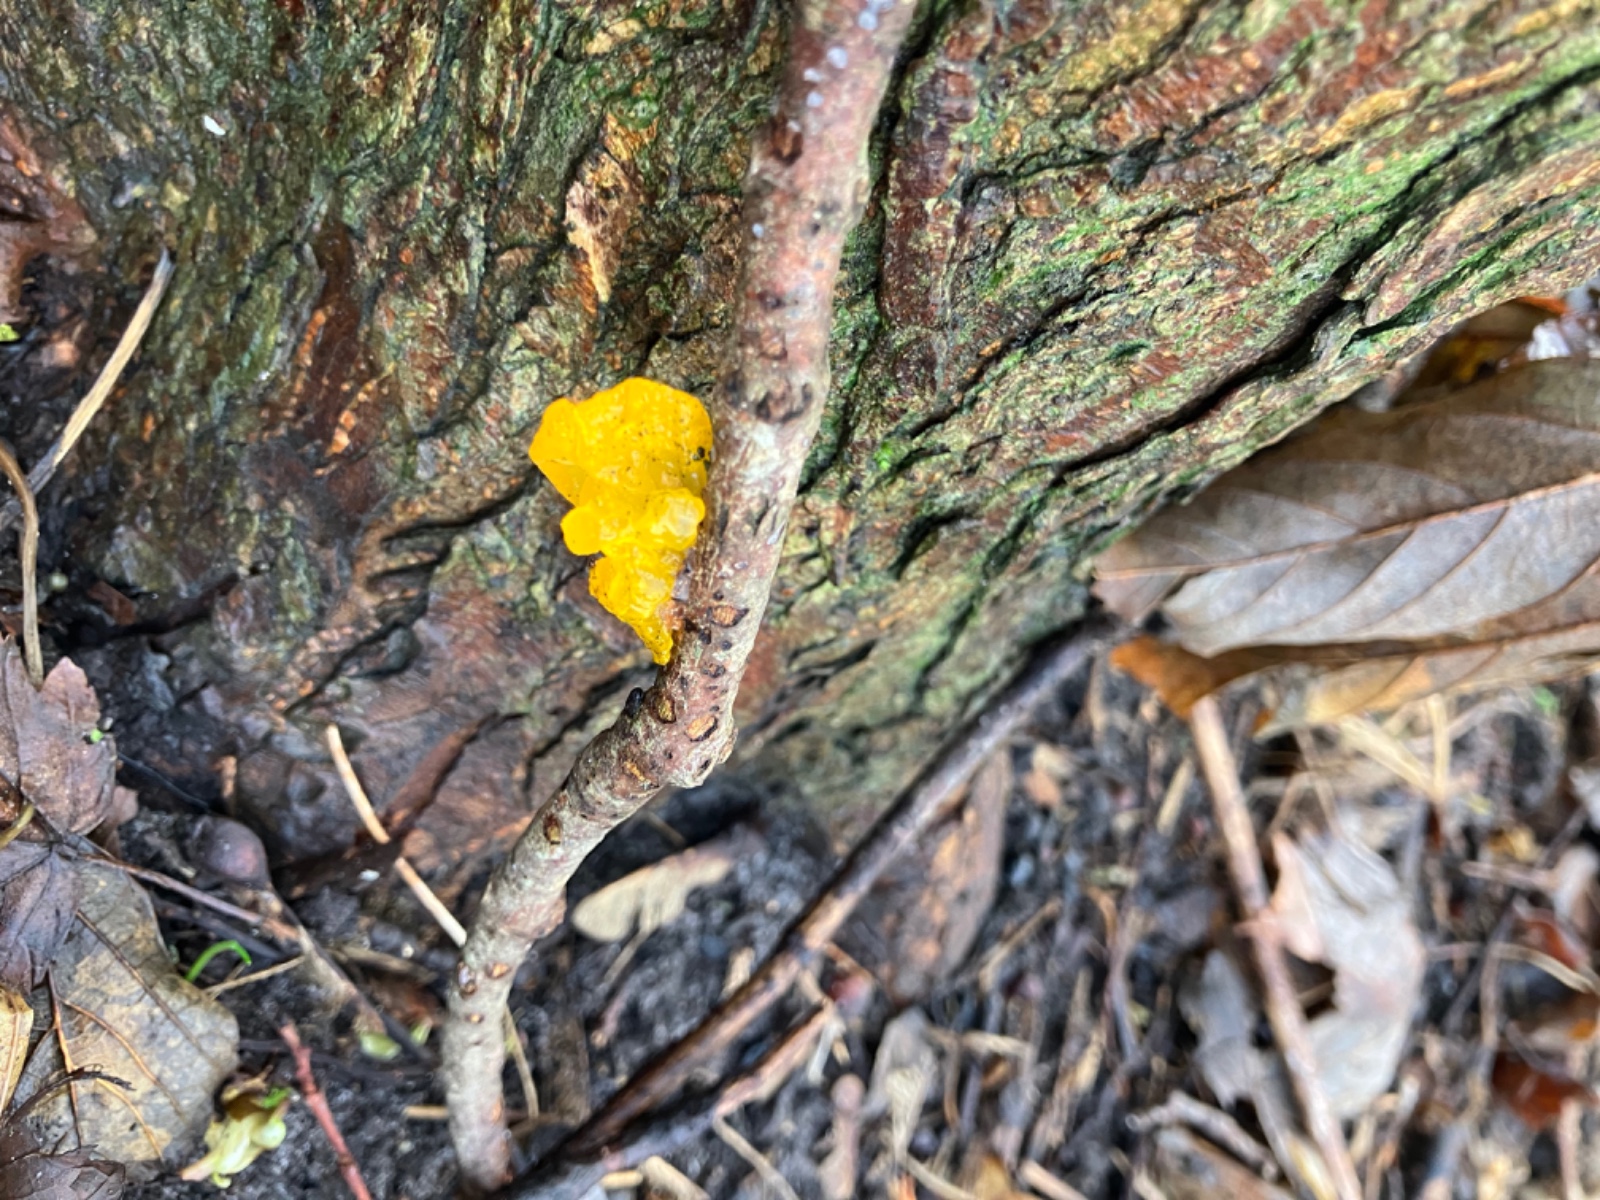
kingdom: Fungi
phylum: Basidiomycota
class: Tremellomycetes
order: Tremellales
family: Tremellaceae
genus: Tremella
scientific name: Tremella mesenterica
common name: gul bævresvamp
